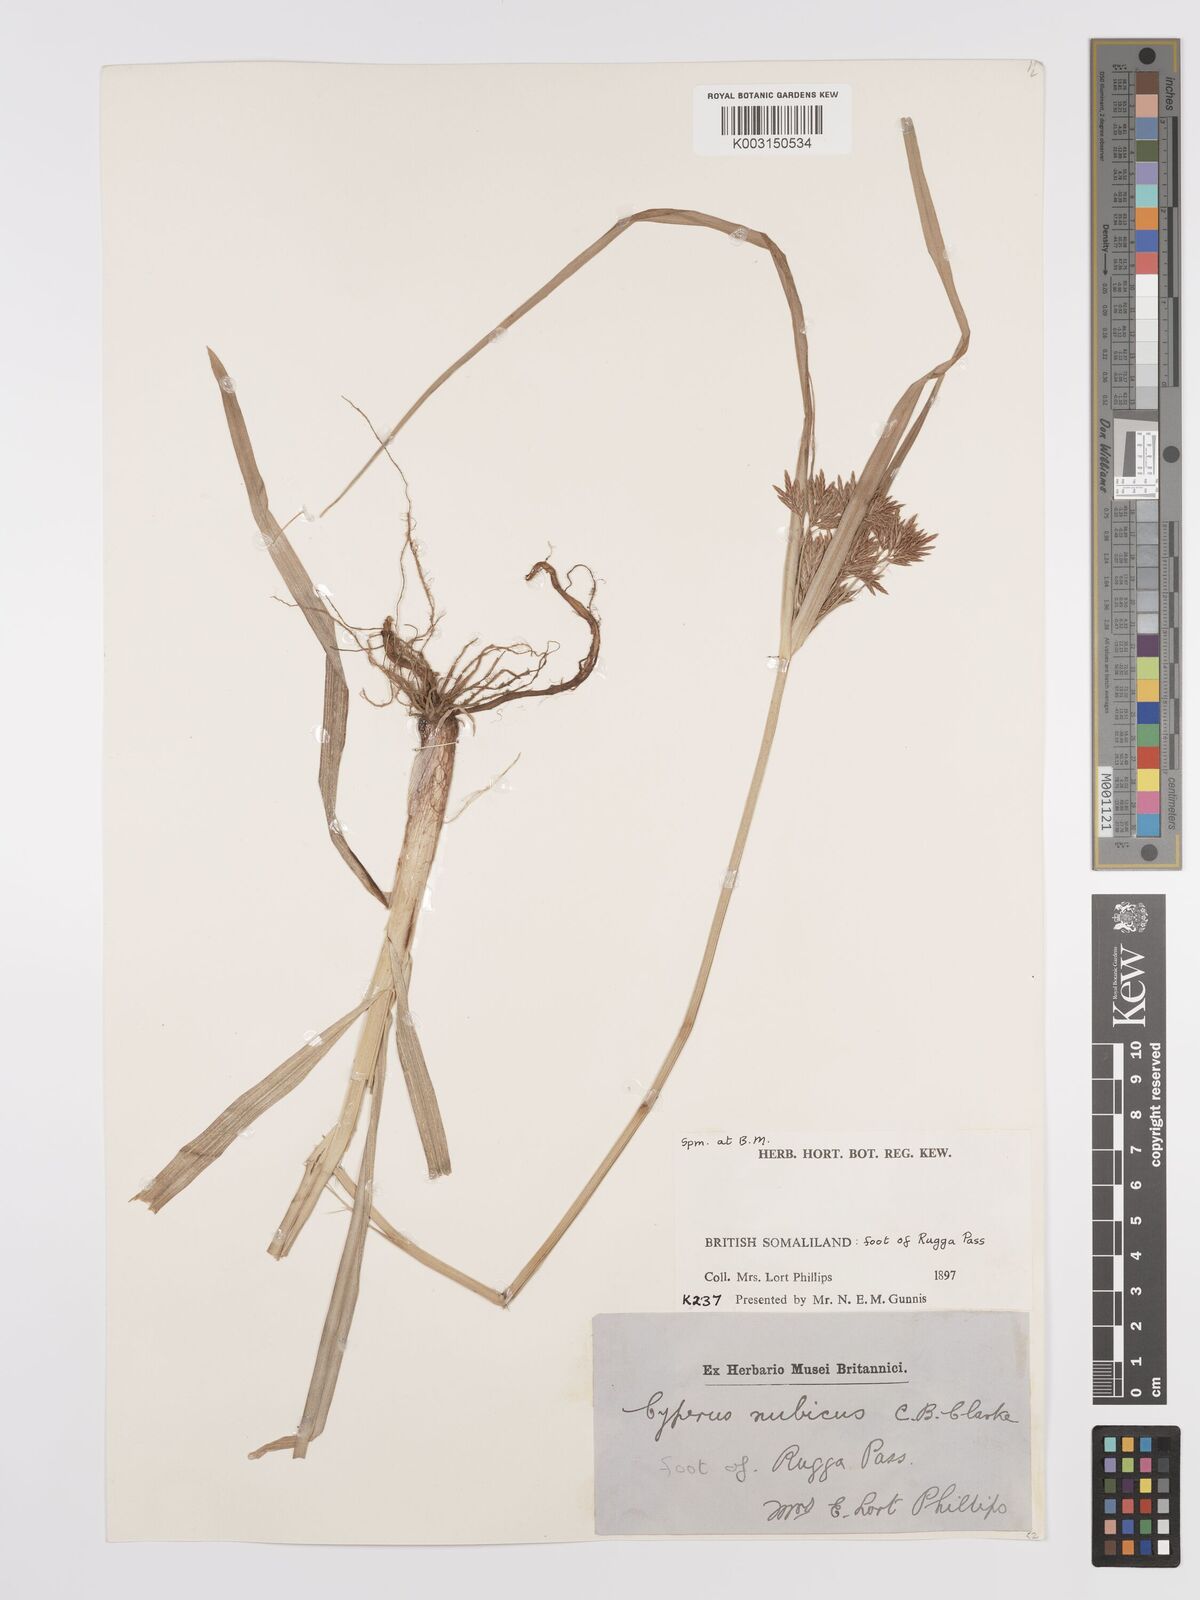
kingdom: Plantae
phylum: Tracheophyta
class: Liliopsida
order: Poales
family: Cyperaceae
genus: Cyperus
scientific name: Cyperus bifax
